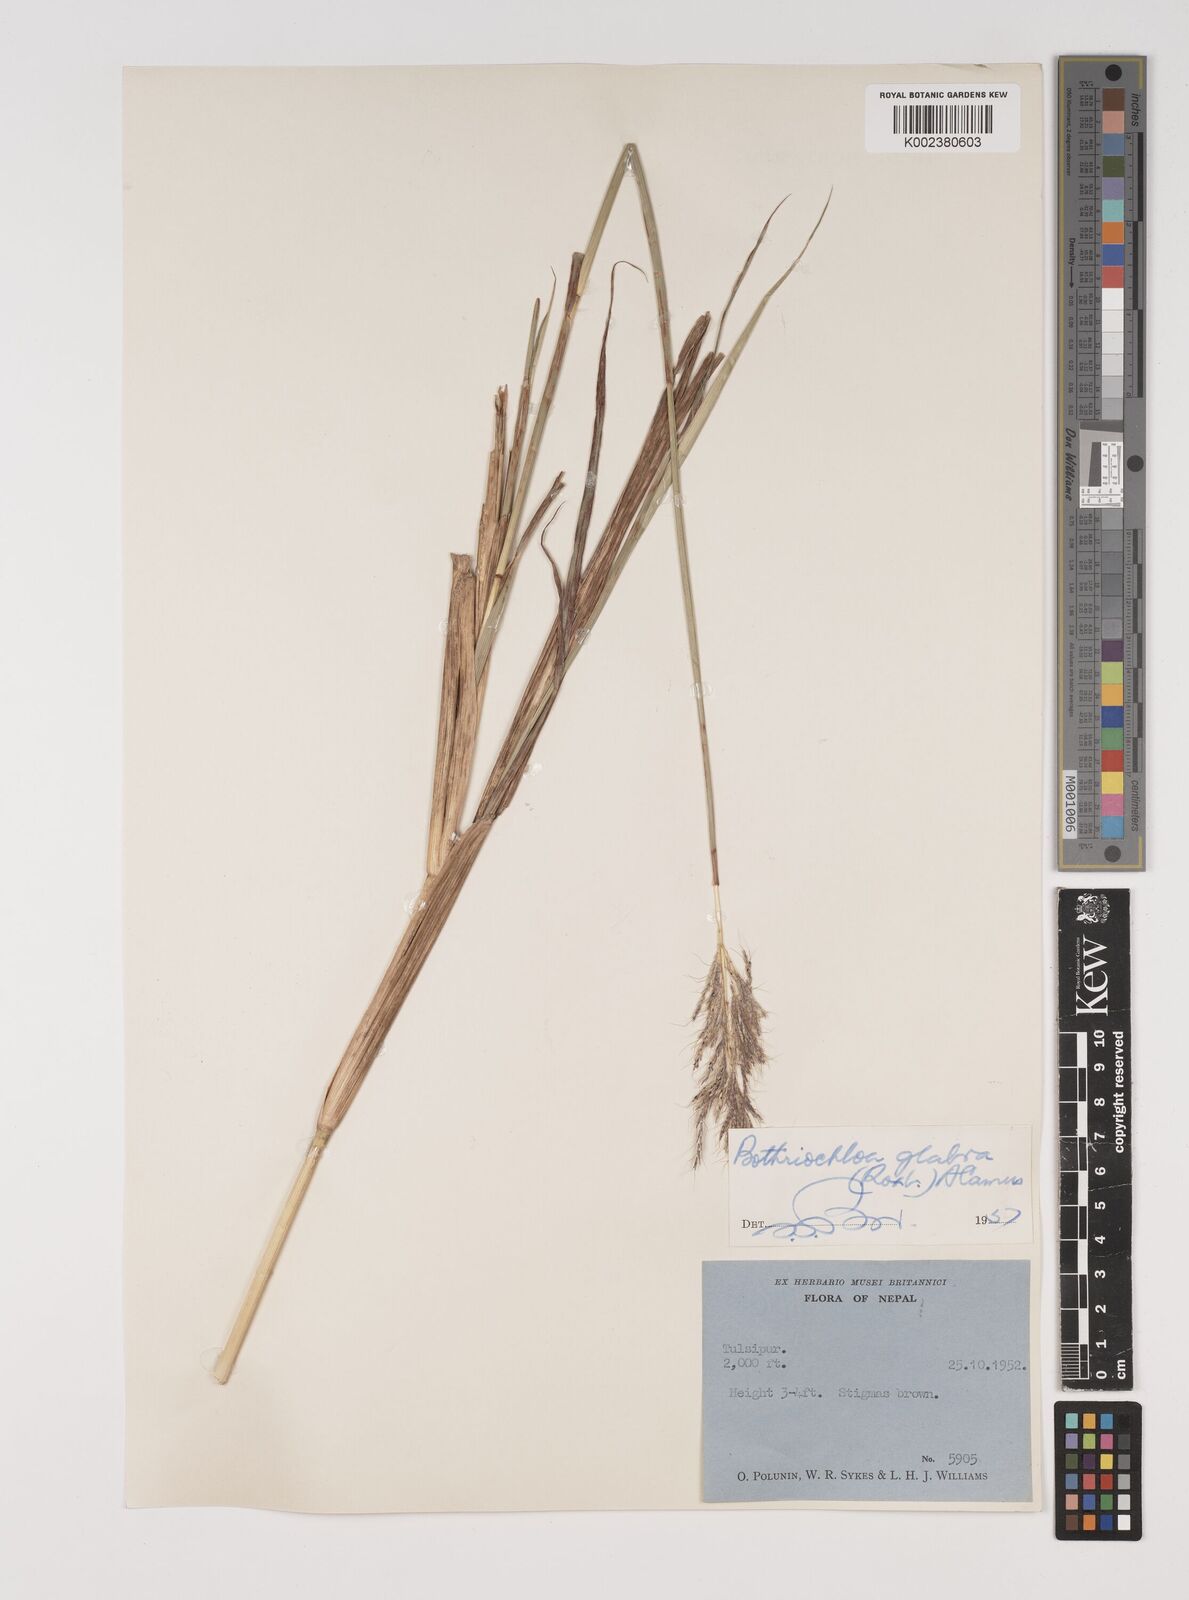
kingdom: Plantae
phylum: Tracheophyta
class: Liliopsida
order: Poales
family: Poaceae
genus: Bothriochloa
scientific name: Bothriochloa bladhii
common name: Caucasian bluestem
